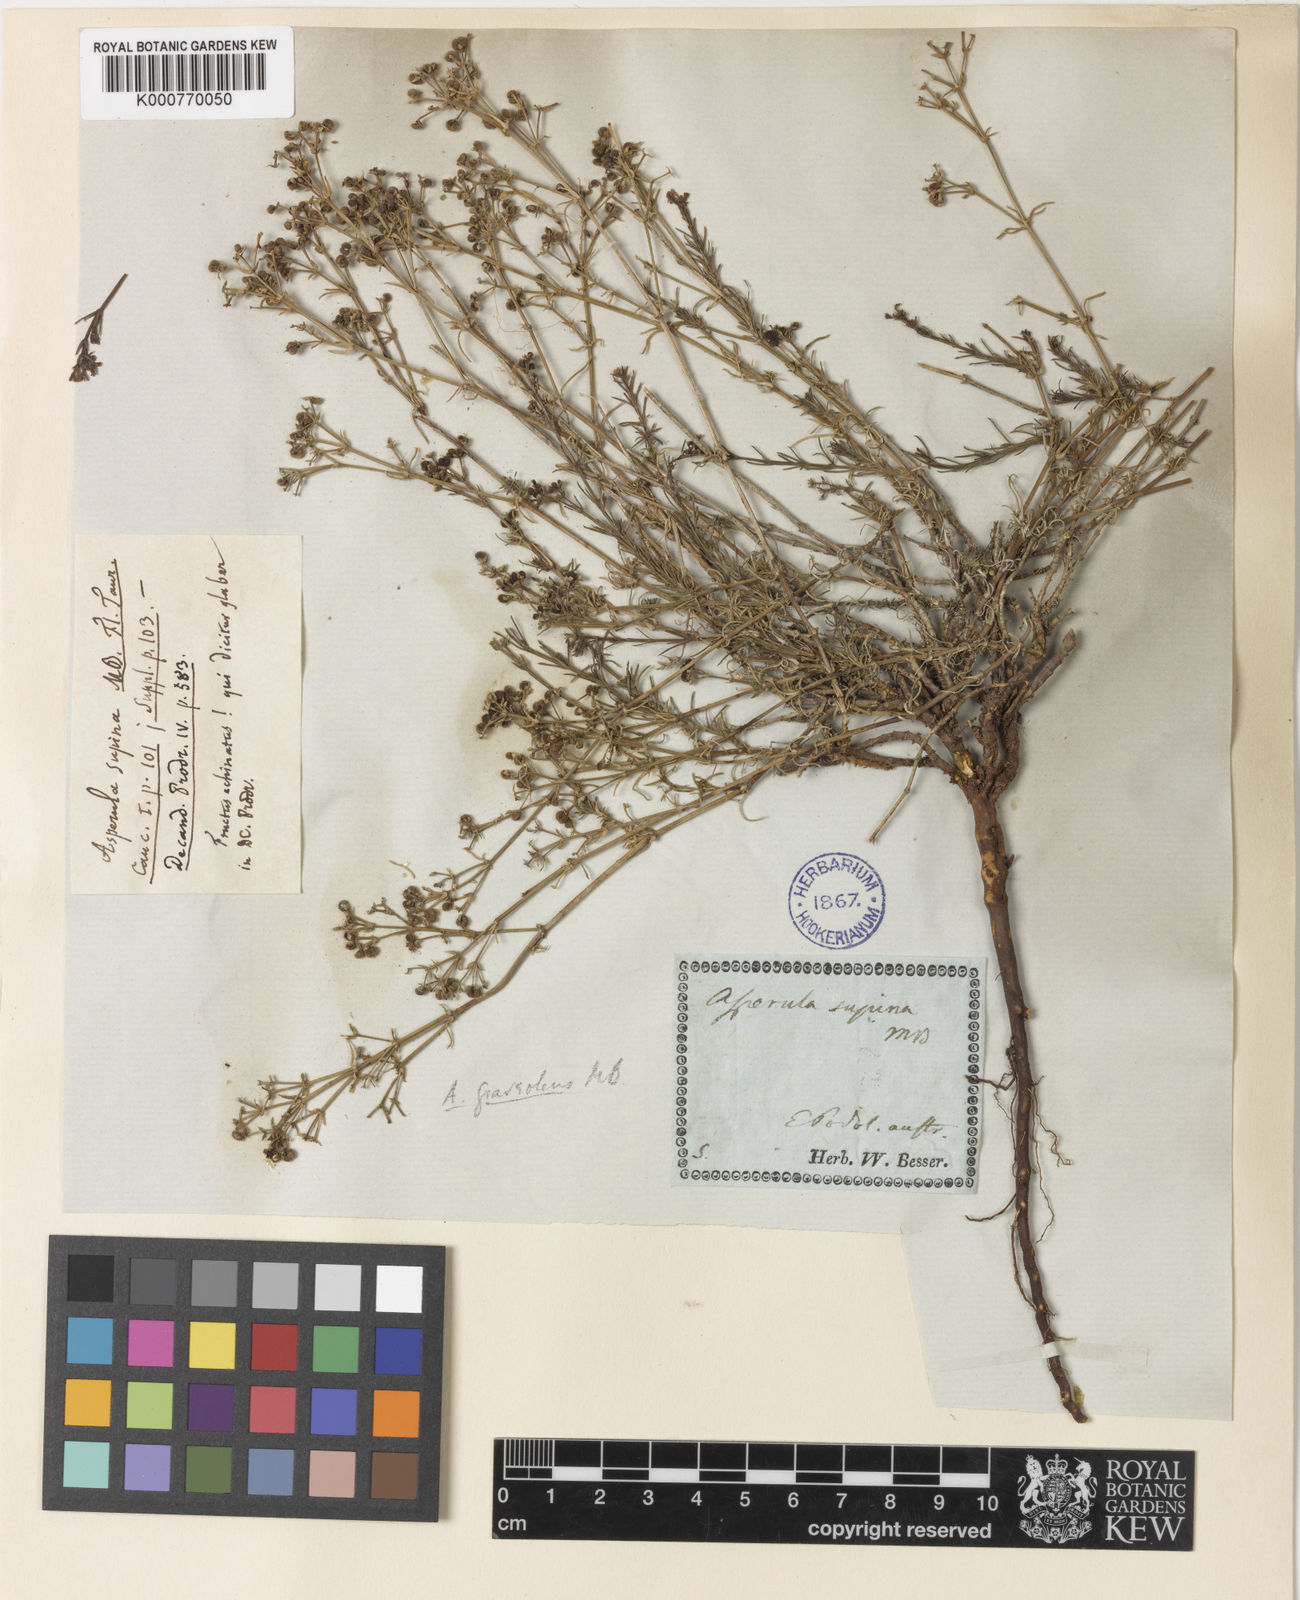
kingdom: Plantae
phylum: Tracheophyta
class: Magnoliopsida
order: Gentianales
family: Rubiaceae
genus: Asperula
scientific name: Asperula
